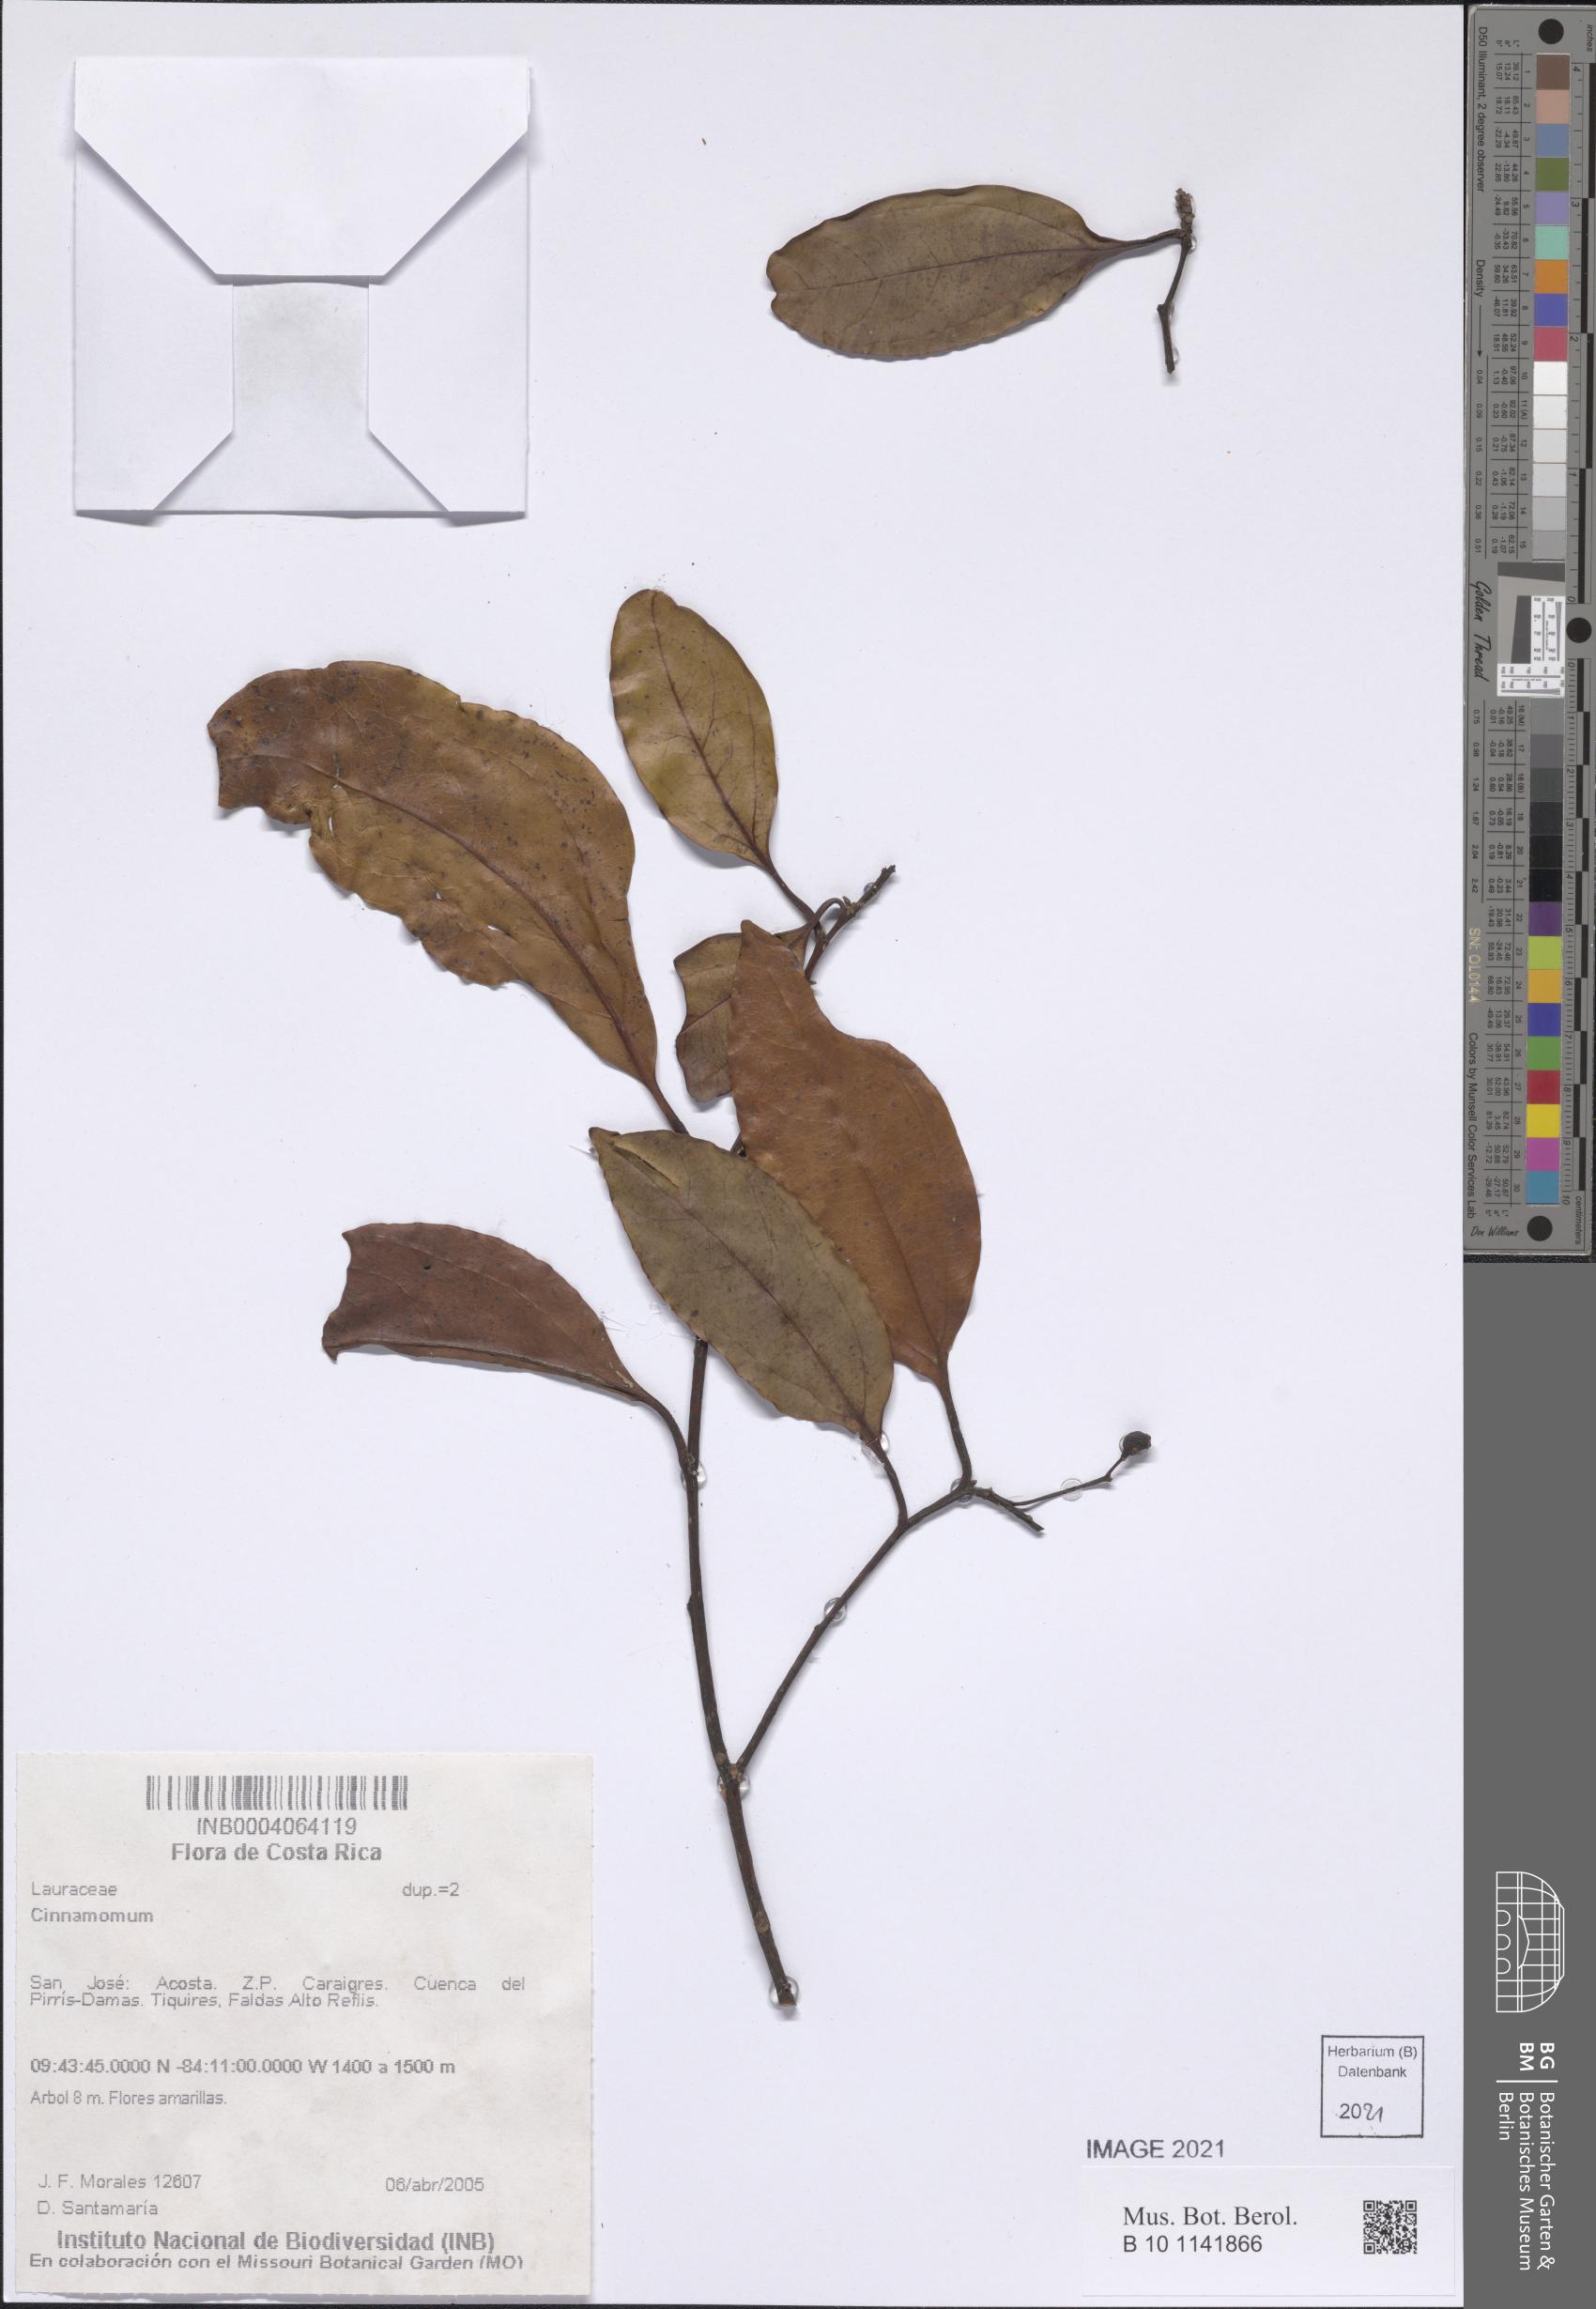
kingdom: Plantae
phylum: Tracheophyta
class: Magnoliopsida
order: Laurales
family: Lauraceae
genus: Cinnamomum
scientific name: Cinnamomum
